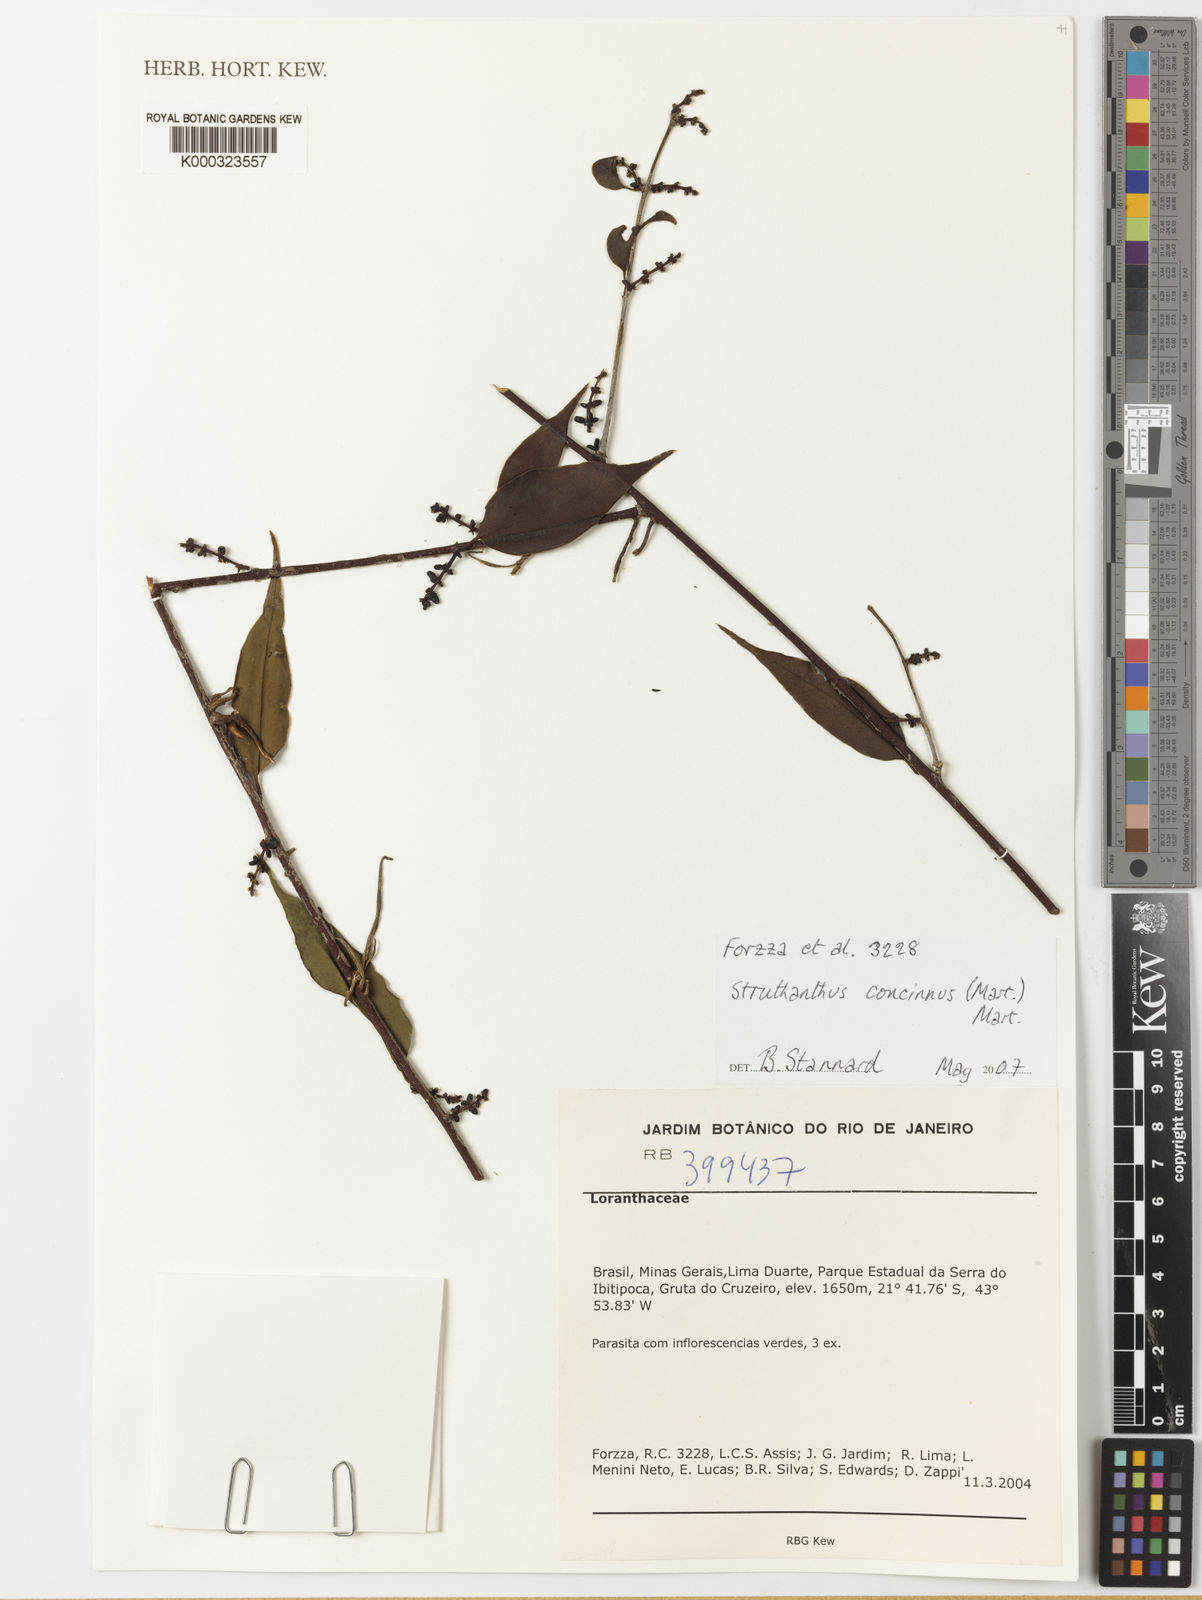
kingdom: Plantae
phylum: Tracheophyta
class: Magnoliopsida
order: Santalales
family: Loranthaceae
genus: Struthanthus
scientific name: Struthanthus
